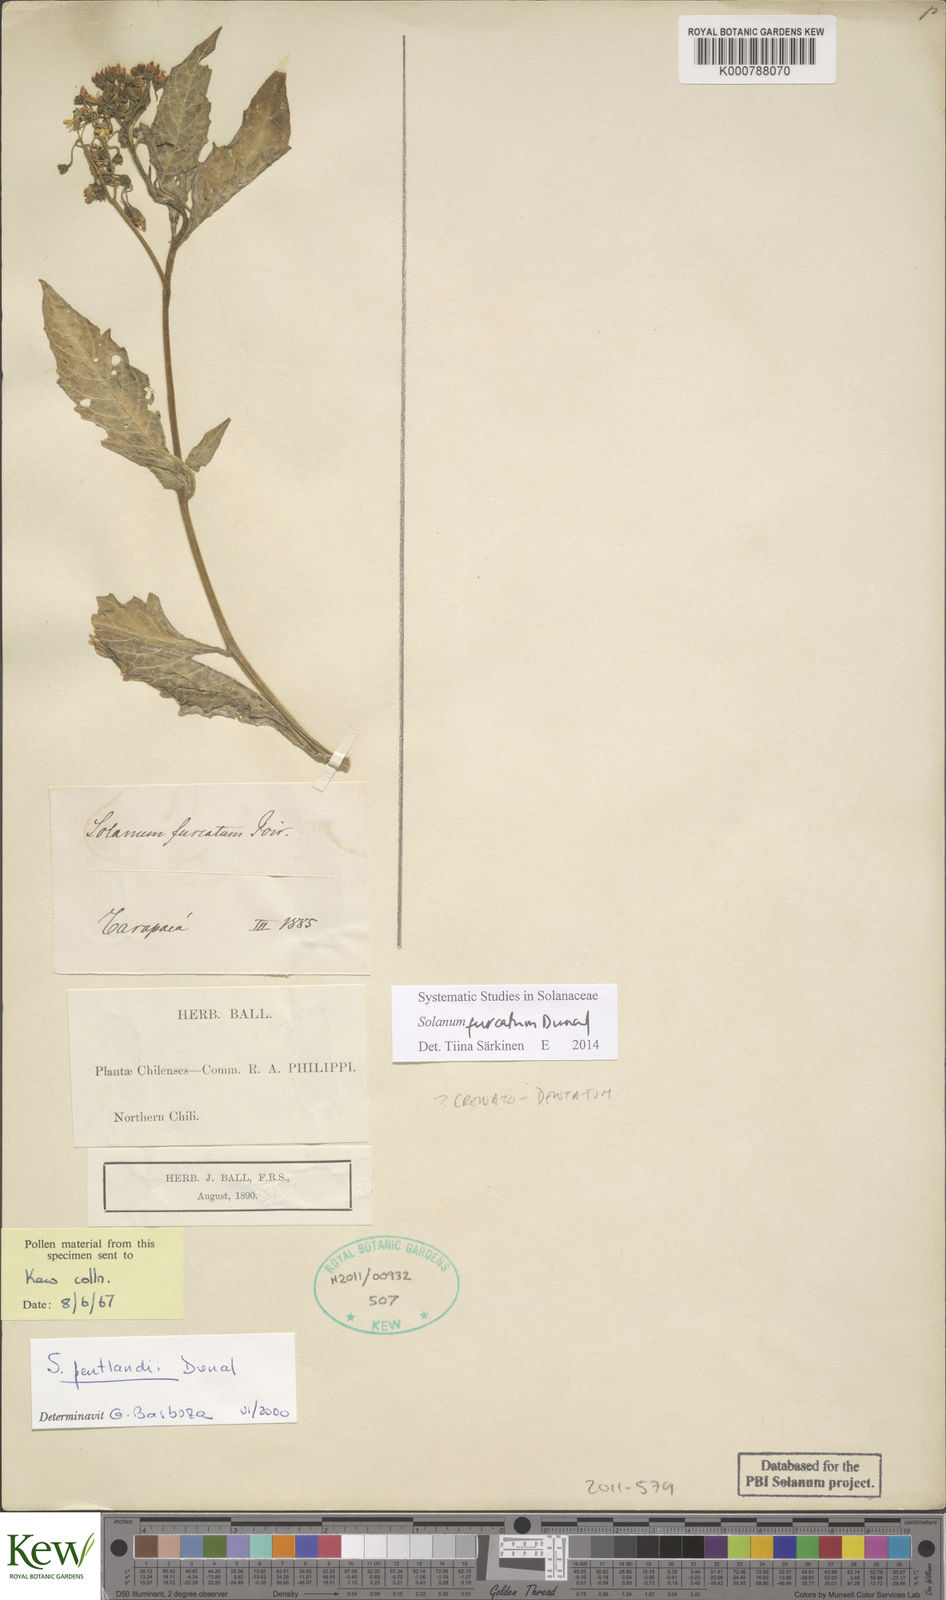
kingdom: Plantae
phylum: Tracheophyta
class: Magnoliopsida
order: Solanales
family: Solanaceae
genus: Solanum
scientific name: Solanum furcatum
